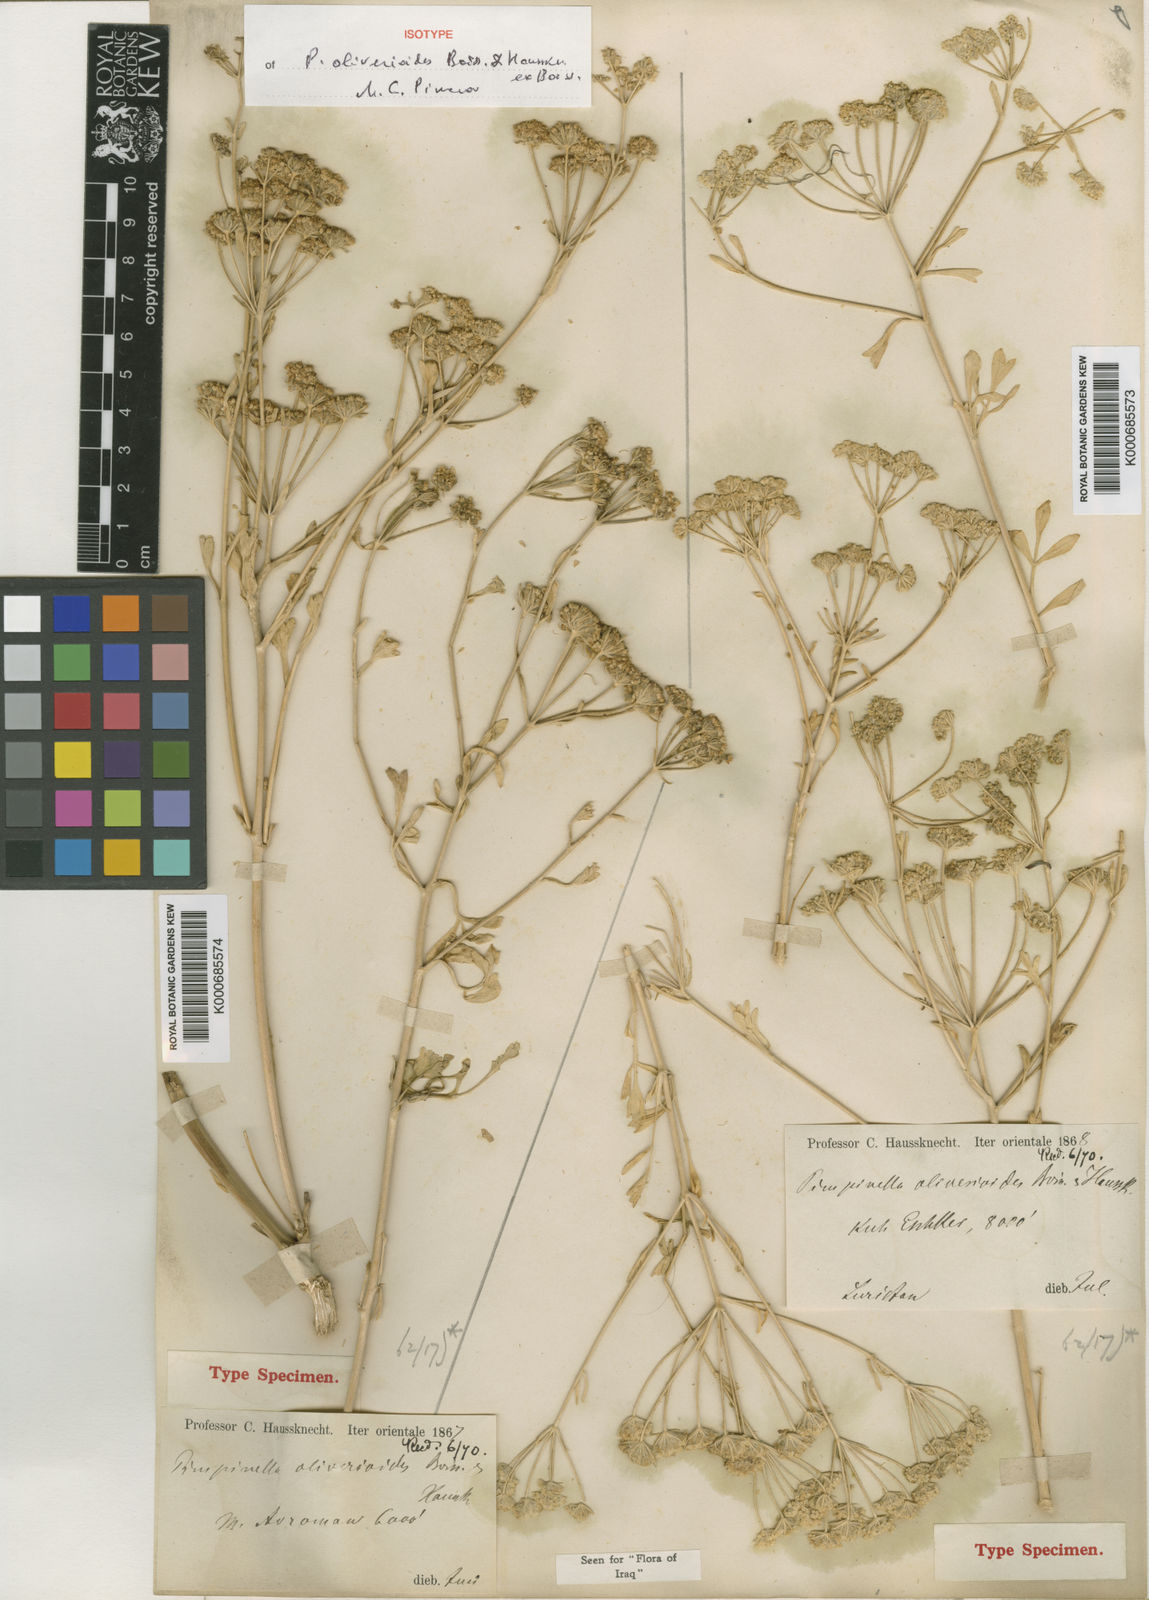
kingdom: Plantae
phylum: Tracheophyta
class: Magnoliopsida
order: Apiales
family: Apiaceae
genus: Pimpinella
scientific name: Pimpinella
